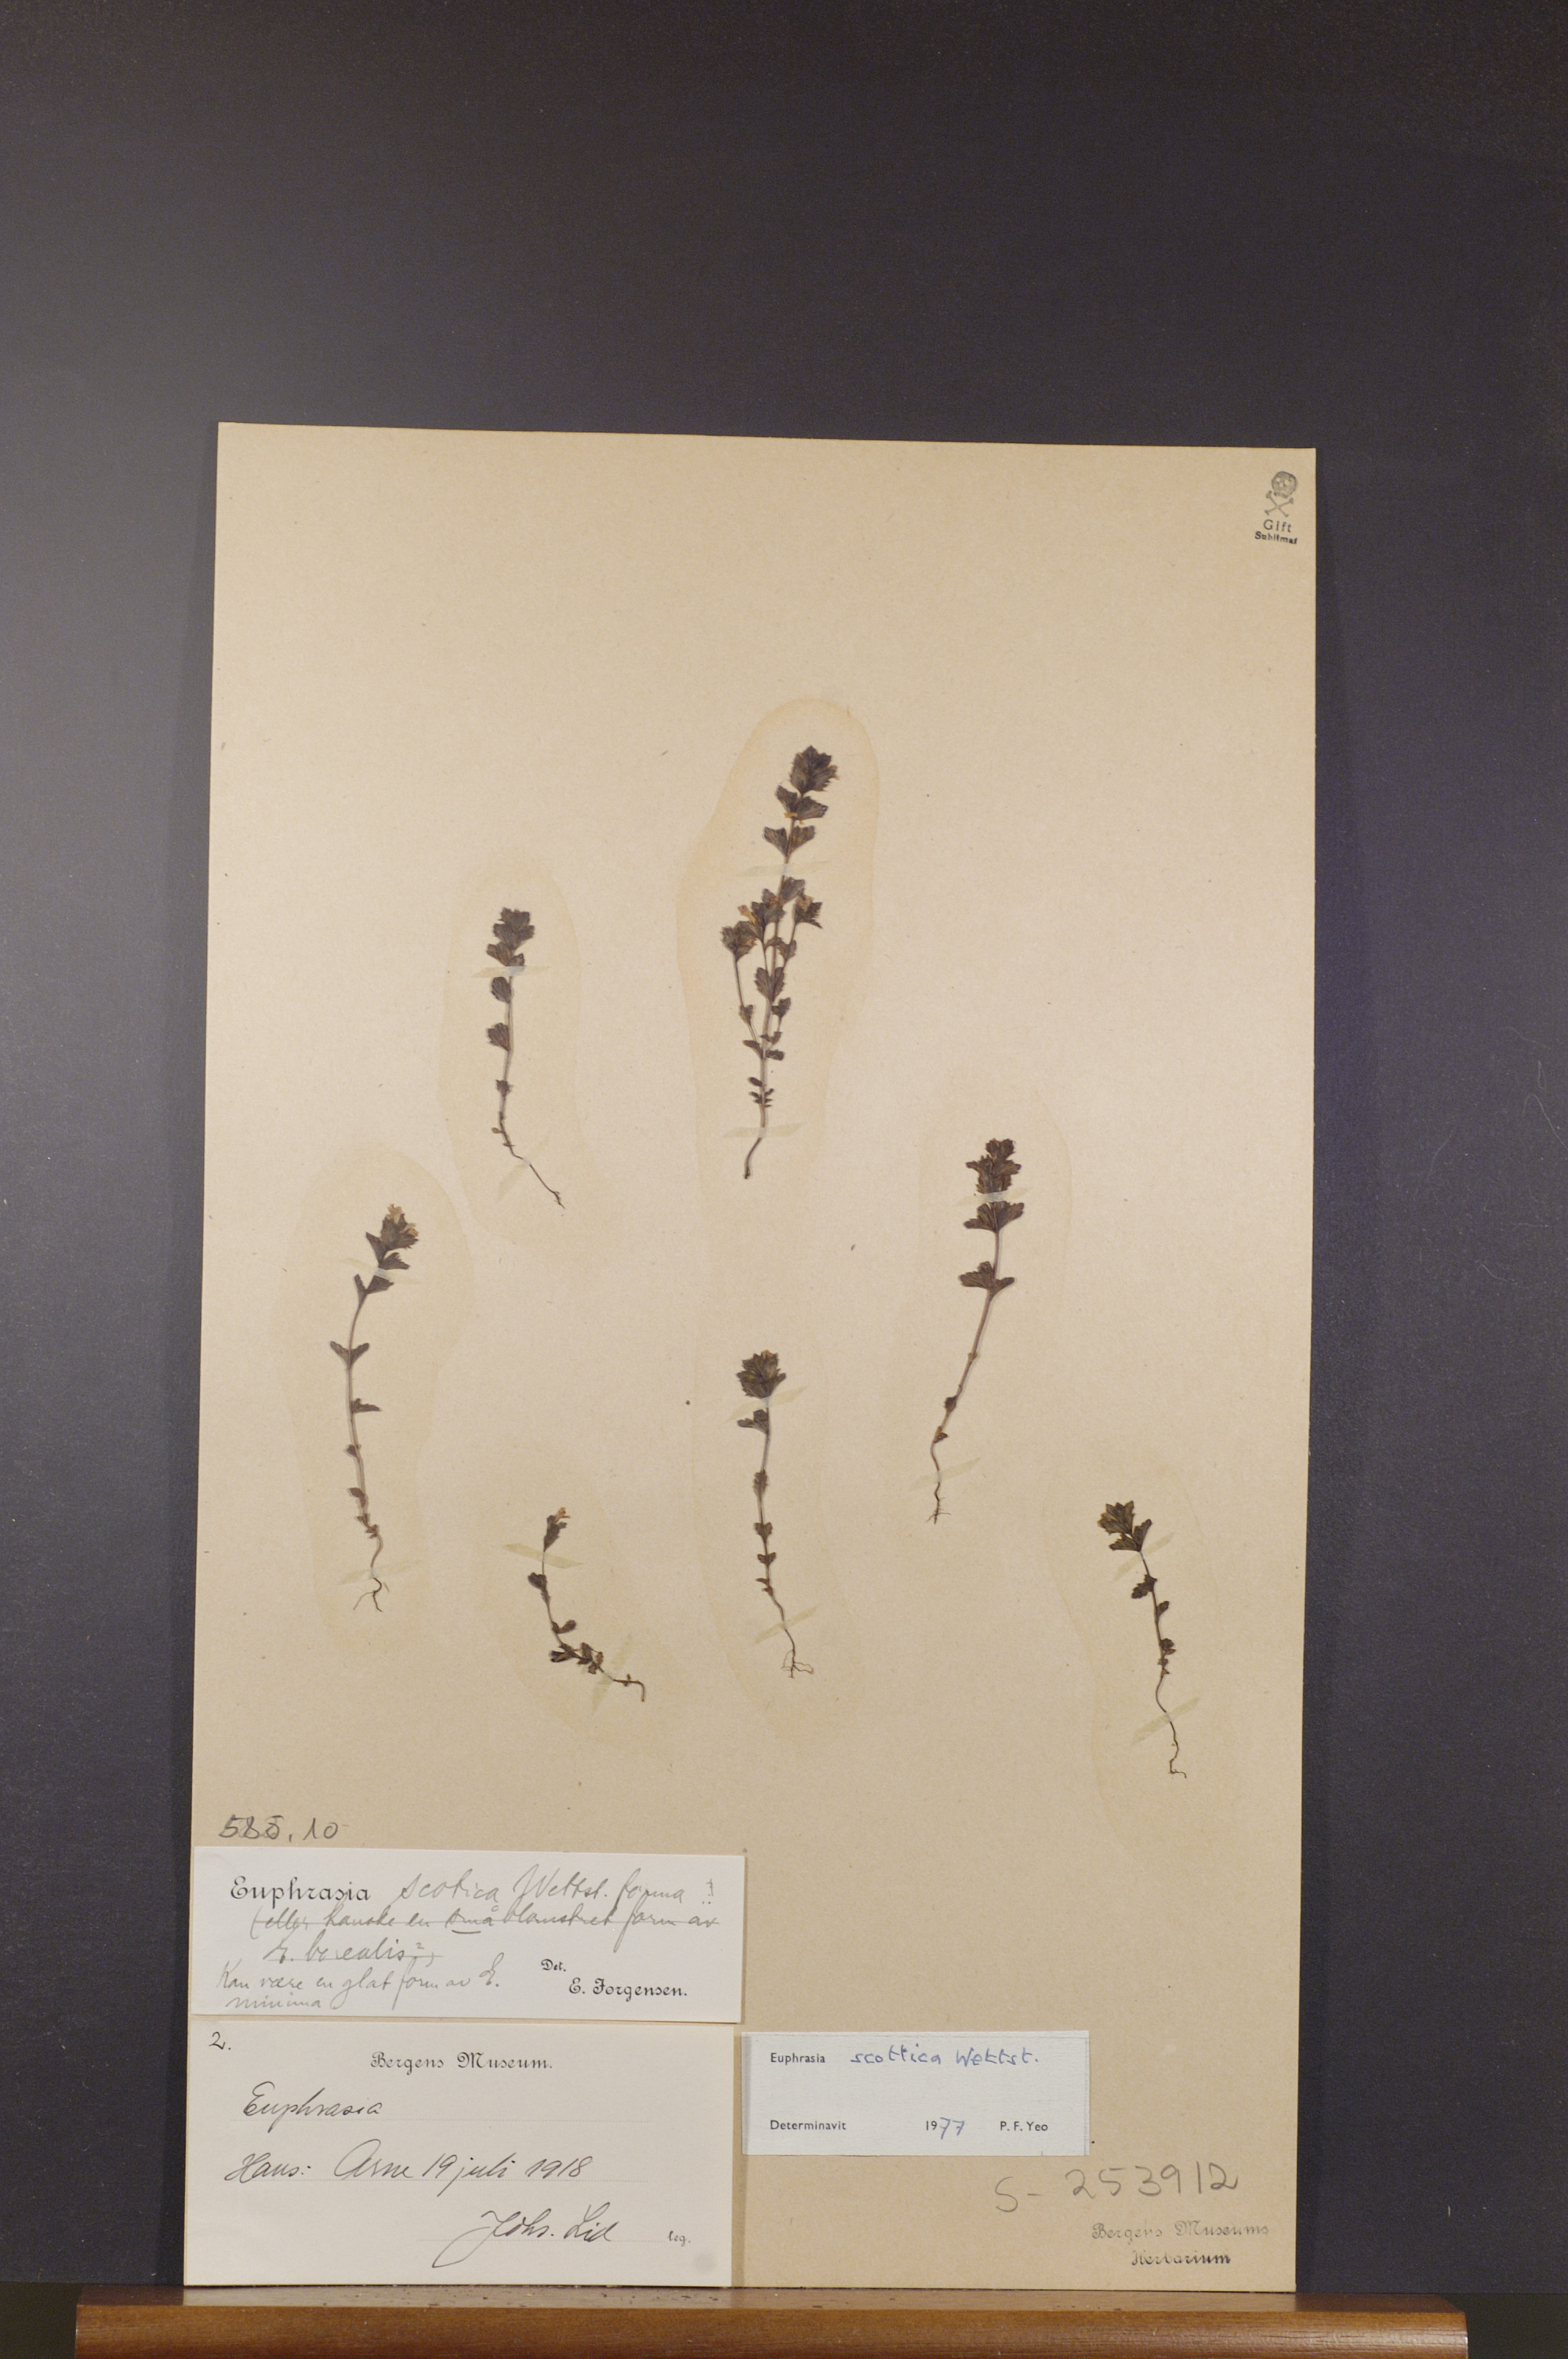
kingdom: Plantae
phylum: Tracheophyta
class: Magnoliopsida
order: Lamiales
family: Orobanchaceae
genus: Euphrasia
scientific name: Euphrasia scottica
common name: Slender scottish eyebright
